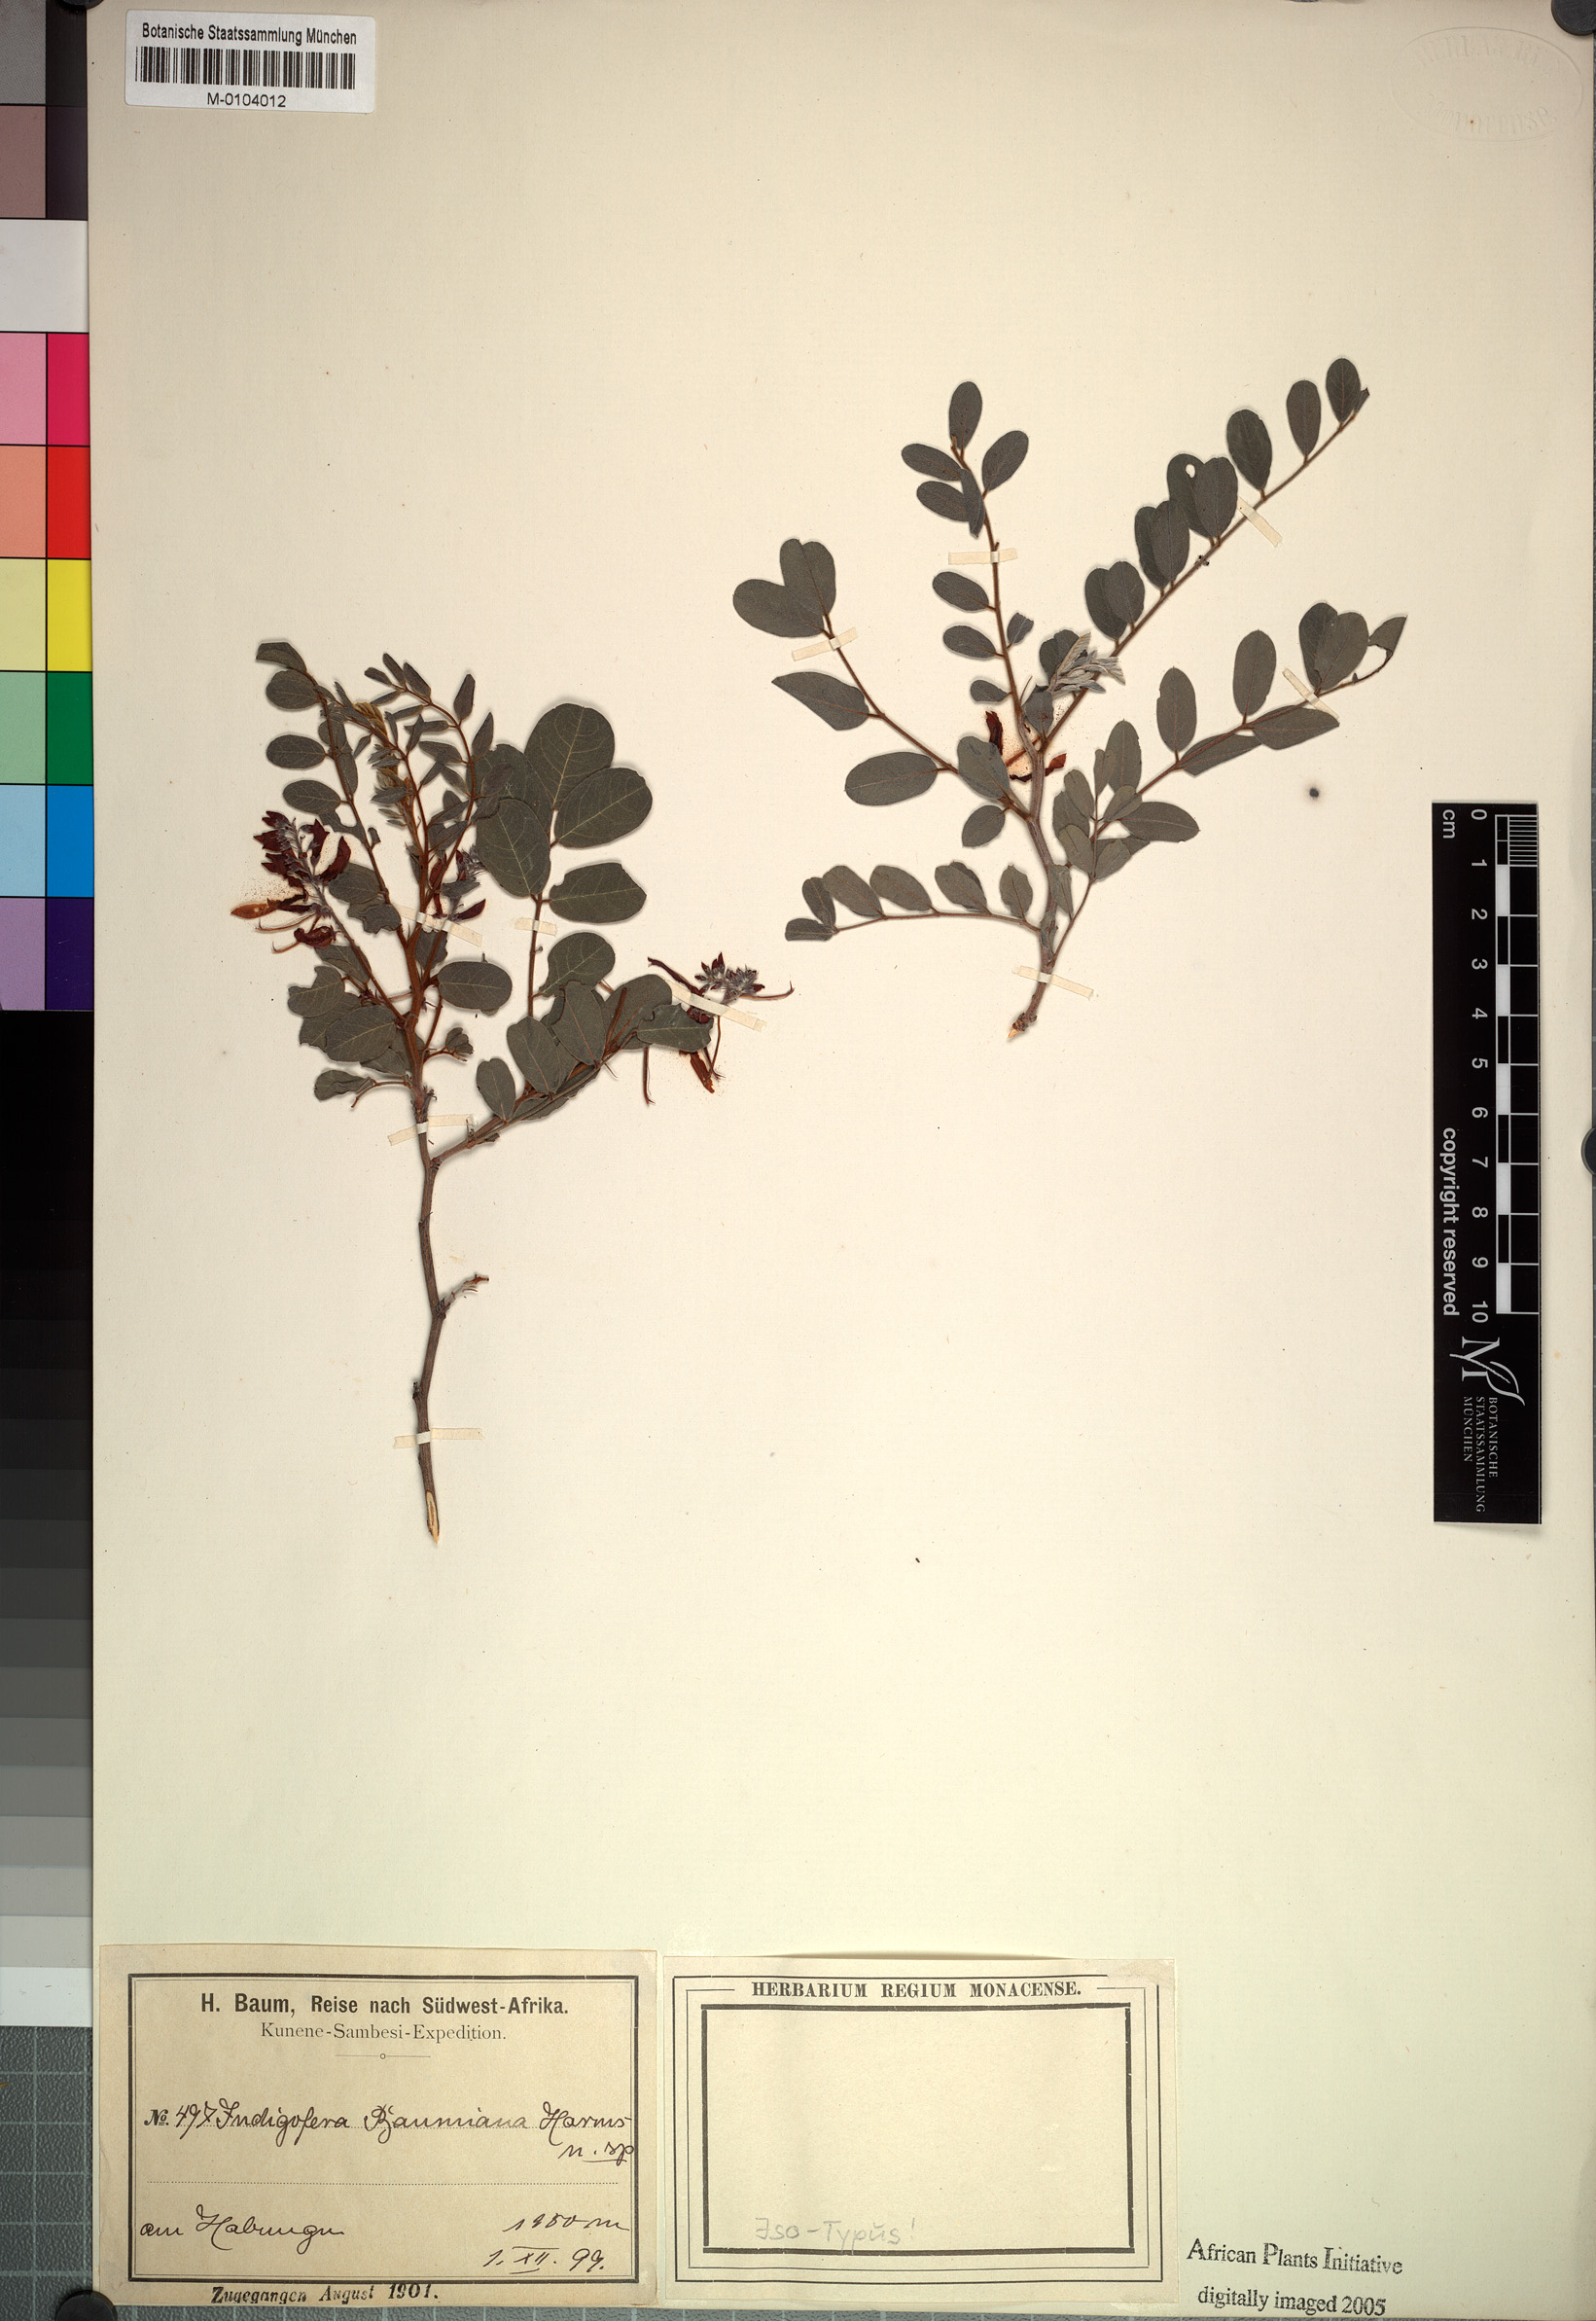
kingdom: Plantae
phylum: Tracheophyta
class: Magnoliopsida
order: Fabales
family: Fabaceae
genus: Indigofera
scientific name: Indigofera baumiana
